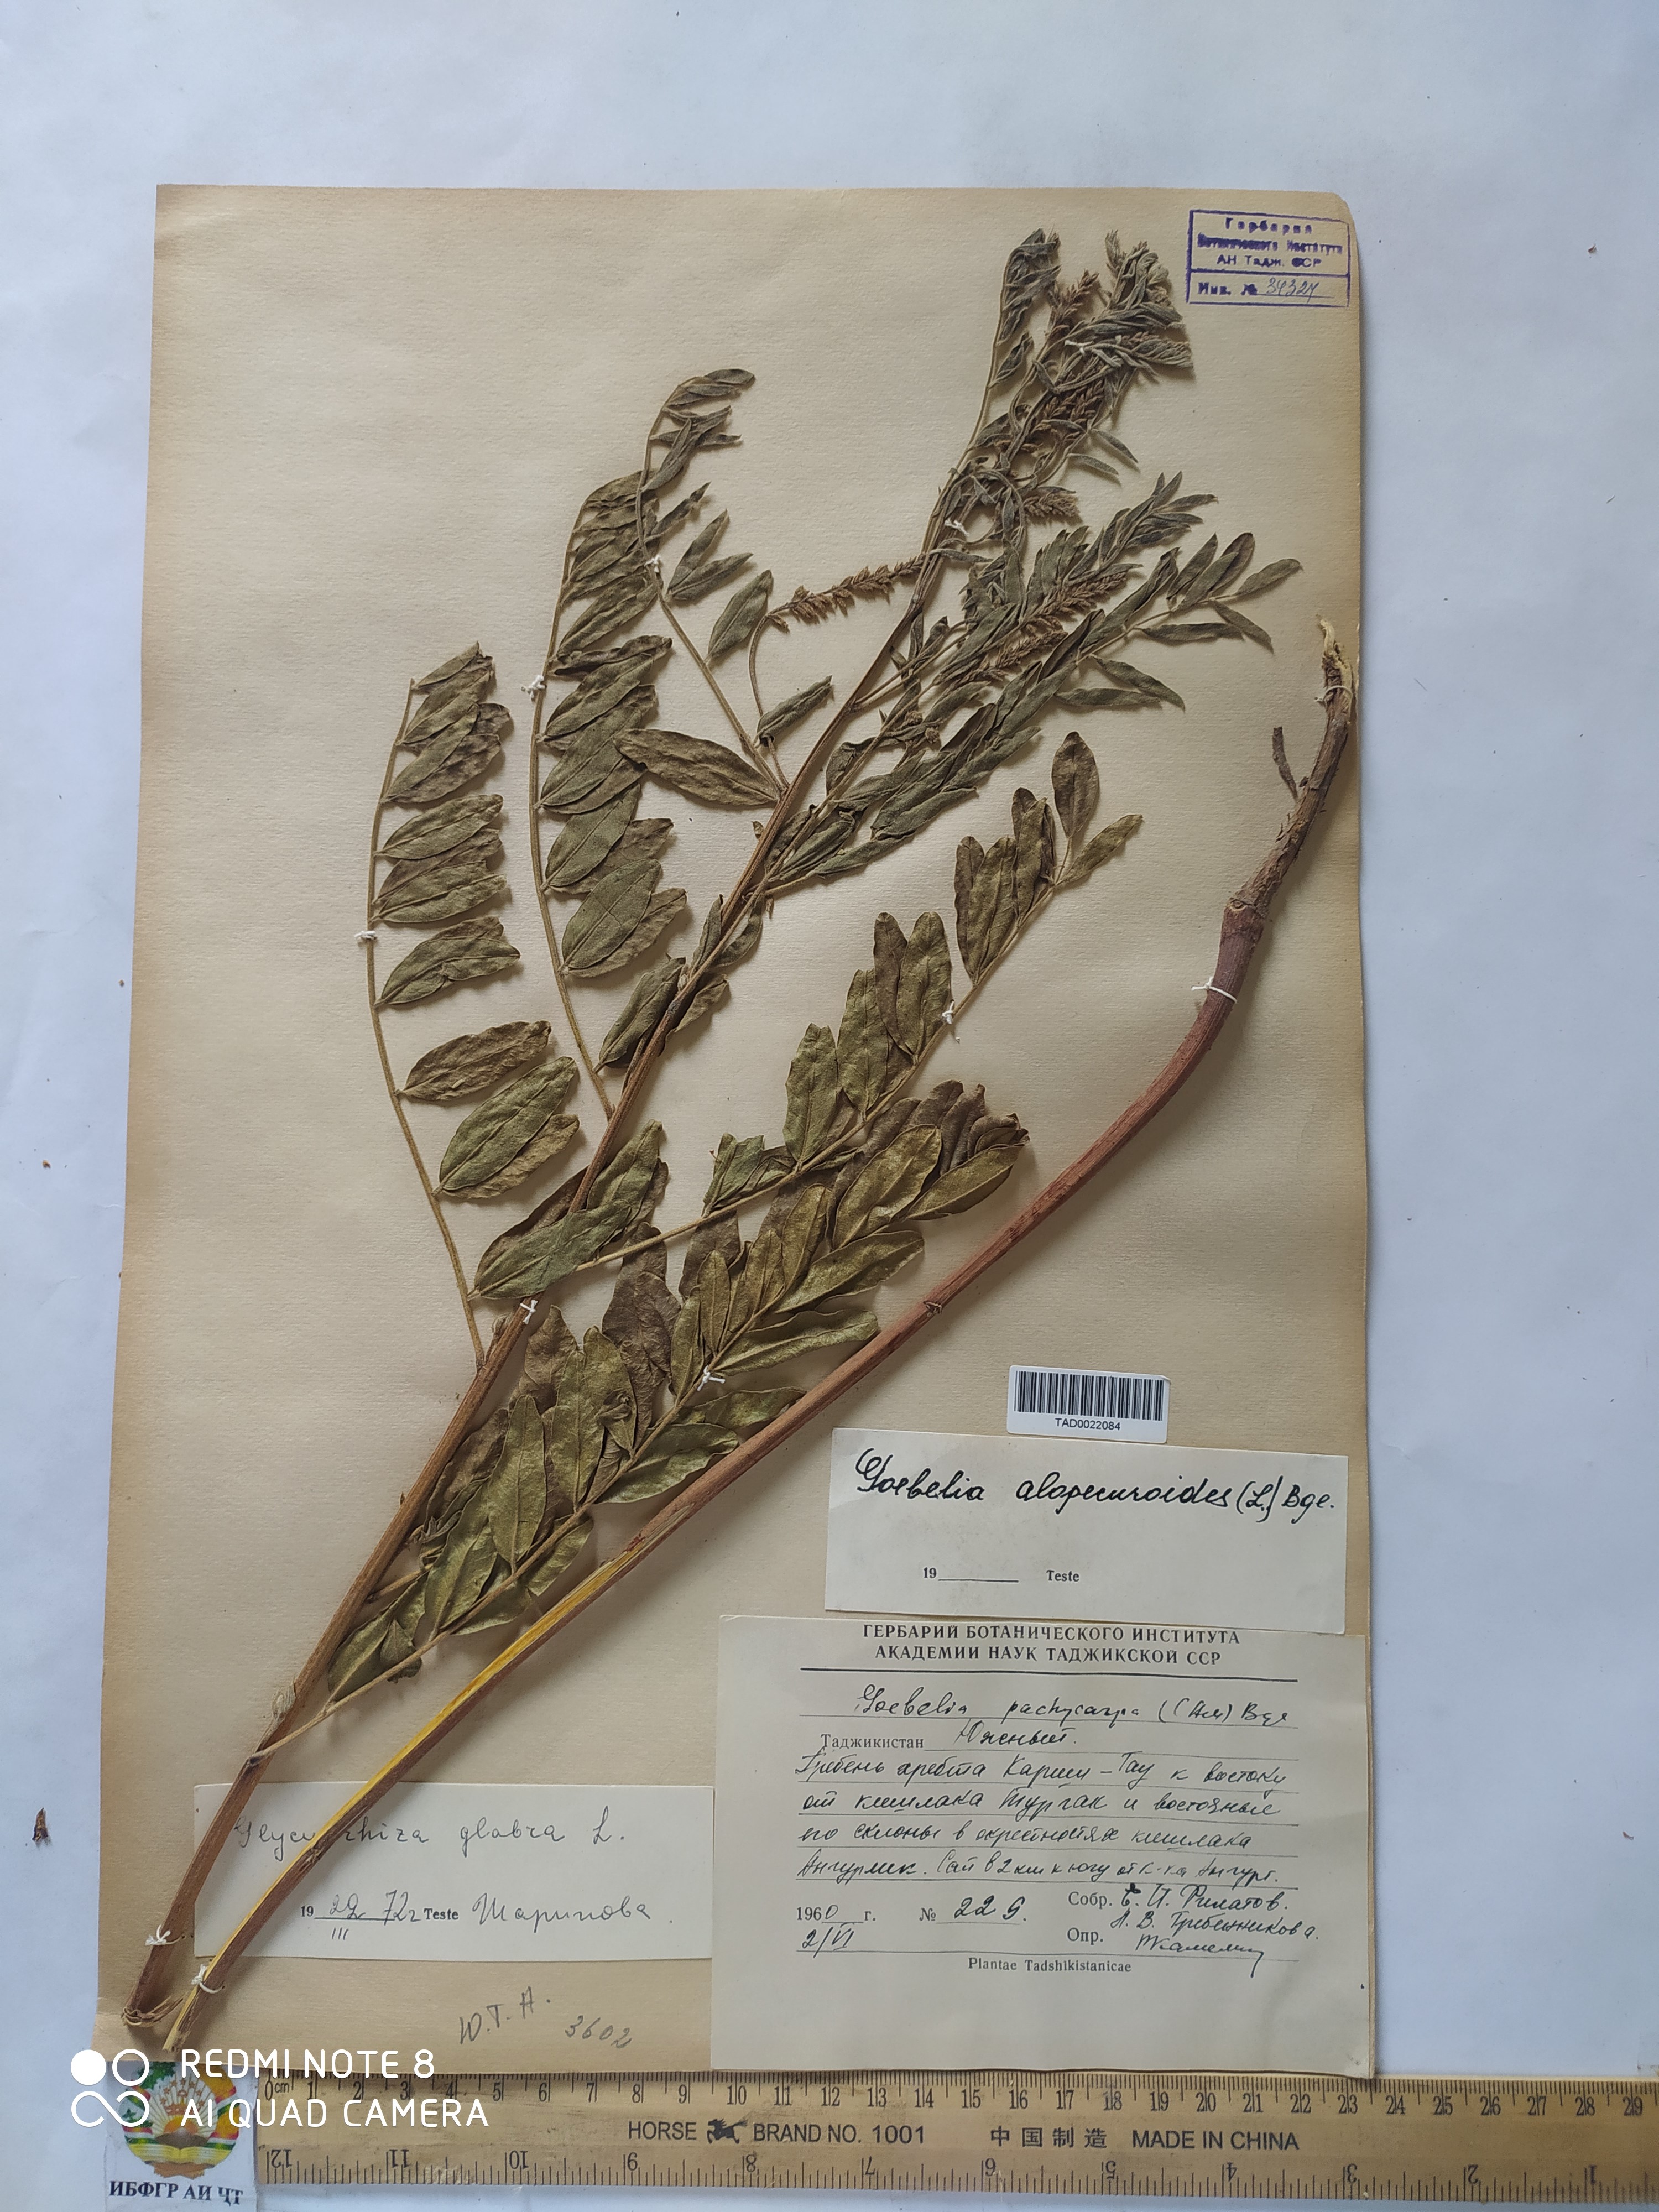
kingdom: Plantae
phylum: Tracheophyta
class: Magnoliopsida
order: Fabales
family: Fabaceae
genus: Glycyrrhiza
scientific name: Glycyrrhiza glabra
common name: Liquorice
